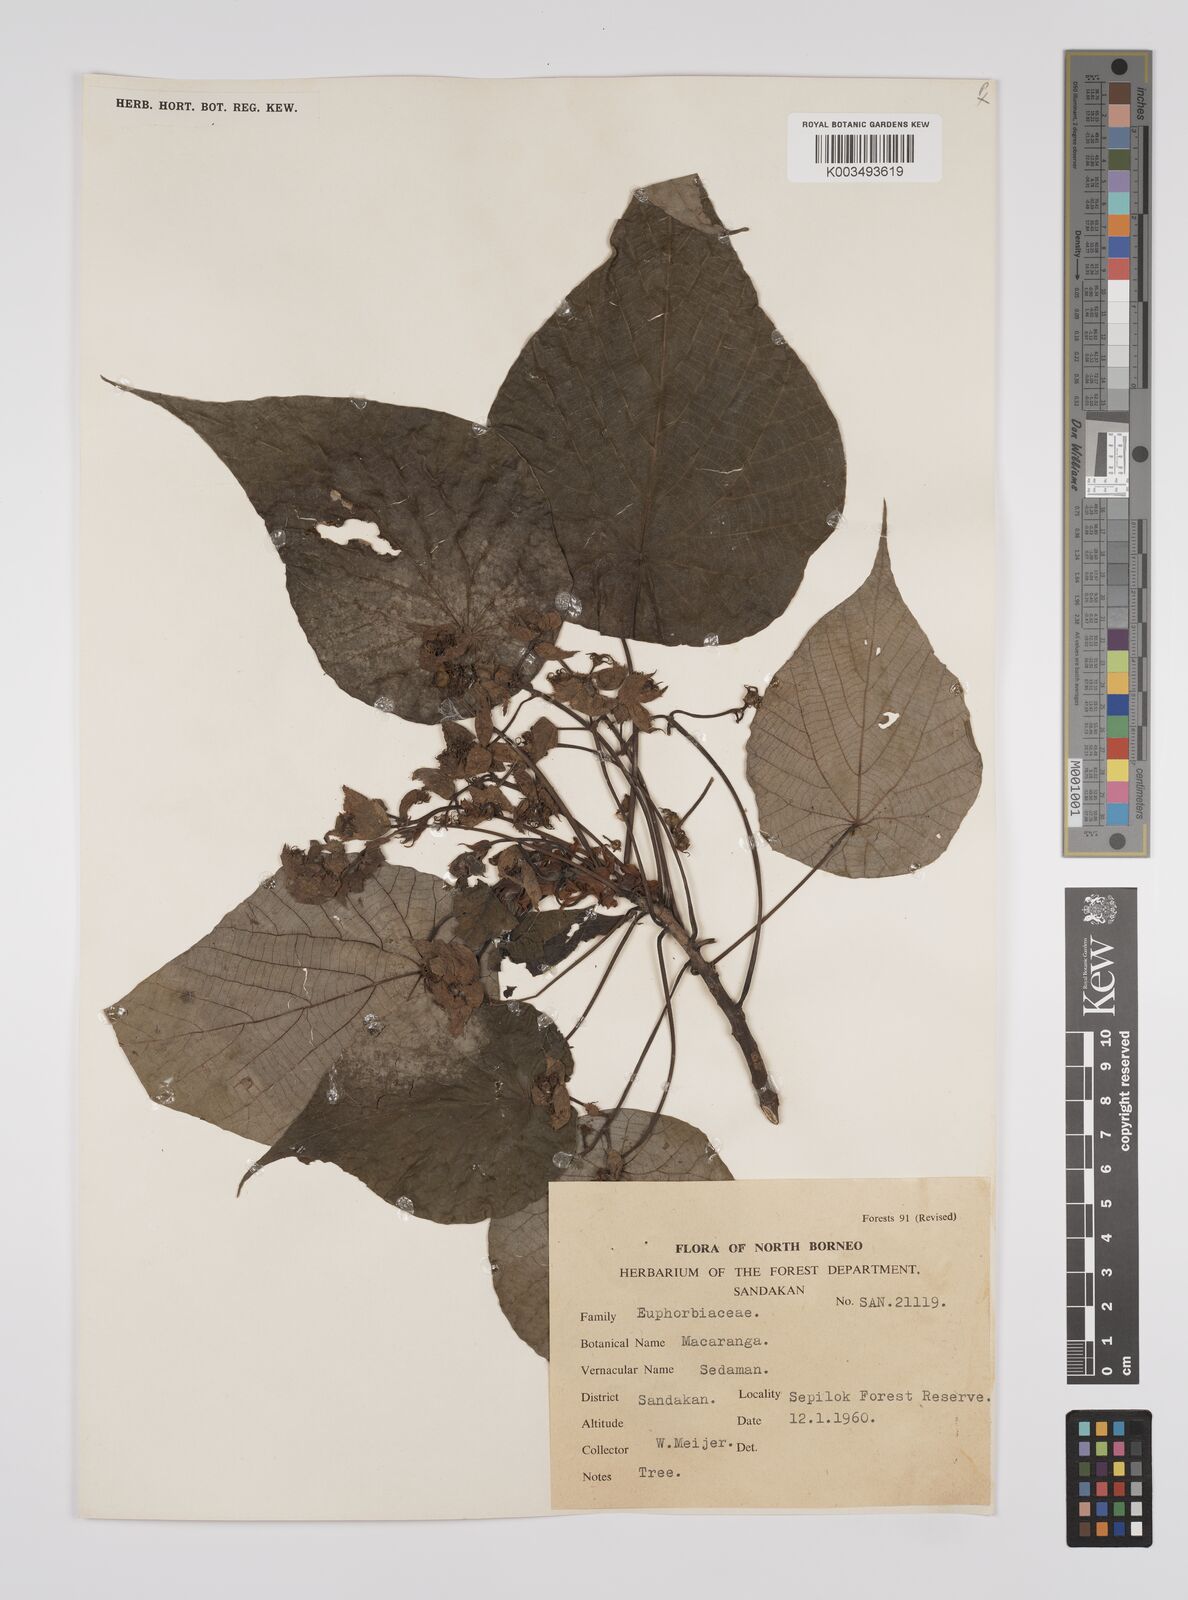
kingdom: Plantae
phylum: Tracheophyta
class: Magnoliopsida
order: Malpighiales
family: Euphorbiaceae
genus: Macaranga
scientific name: Macaranga tanarius
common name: Parasol leaf tree
